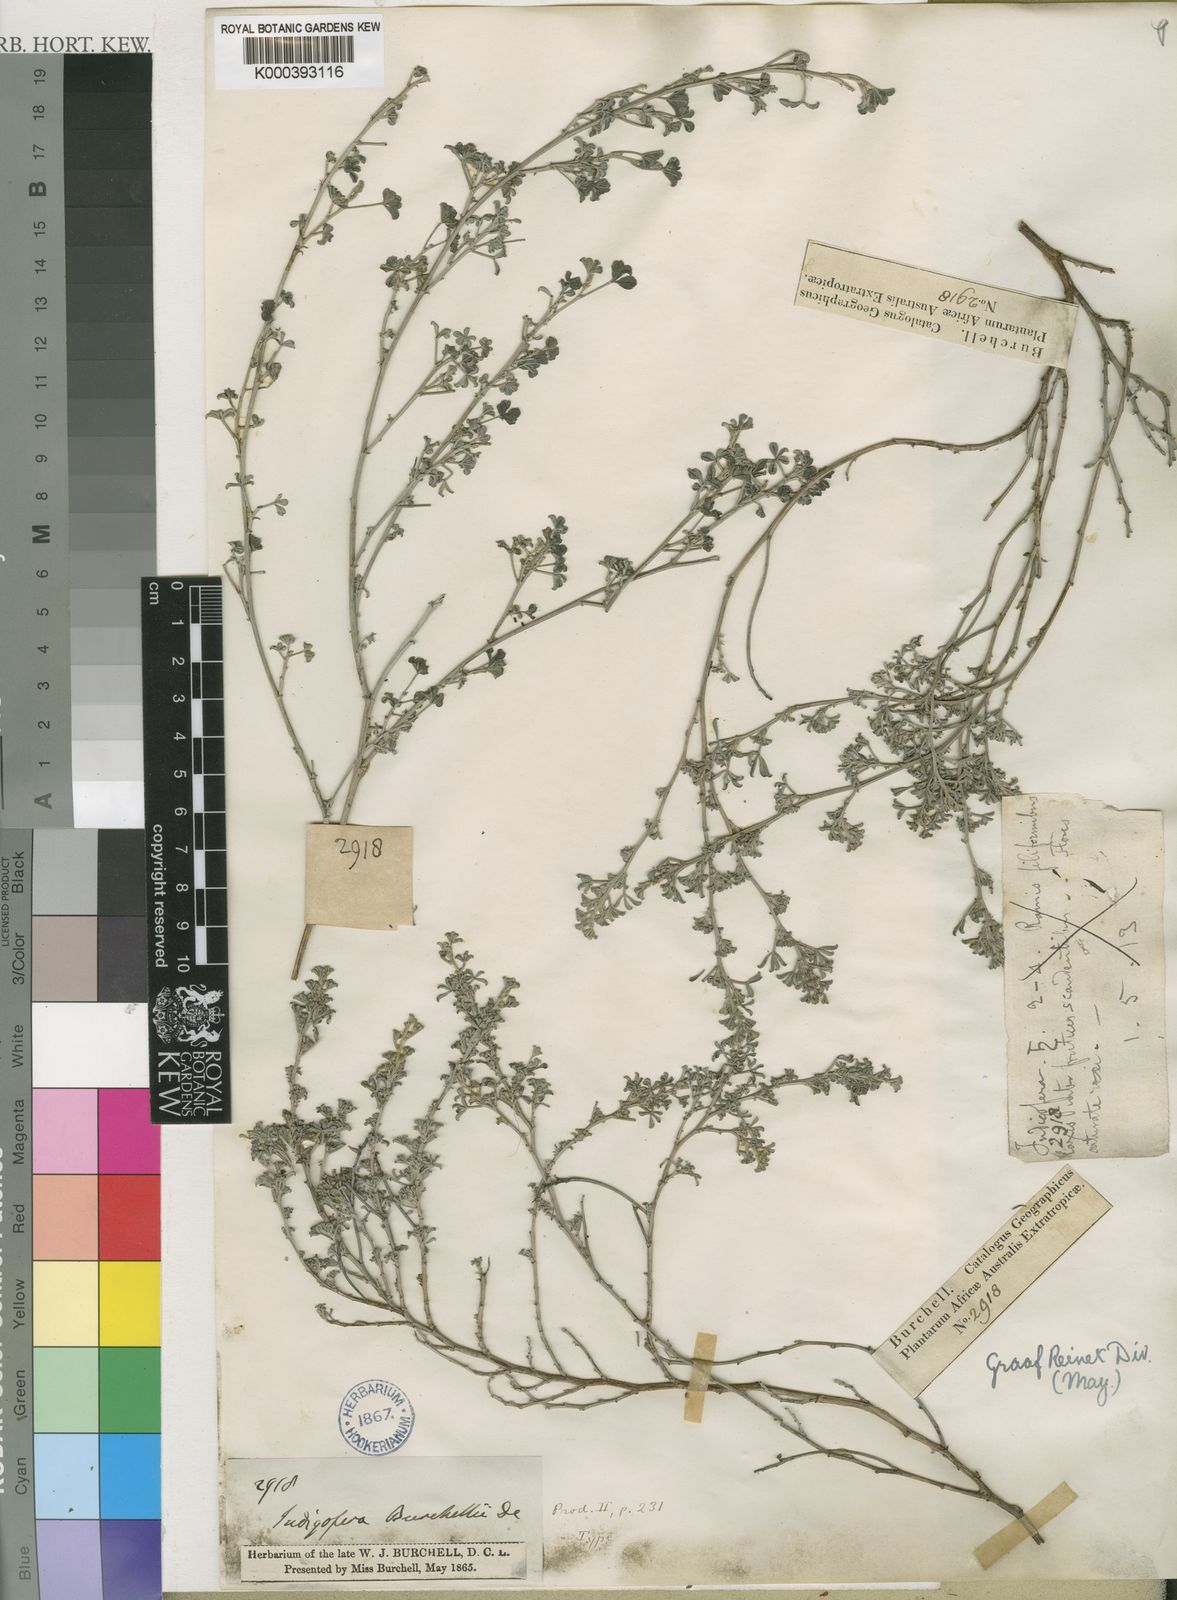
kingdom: Plantae
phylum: Tracheophyta
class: Magnoliopsida
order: Fabales
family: Fabaceae
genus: Indigofera
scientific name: Indigofera burchellii
